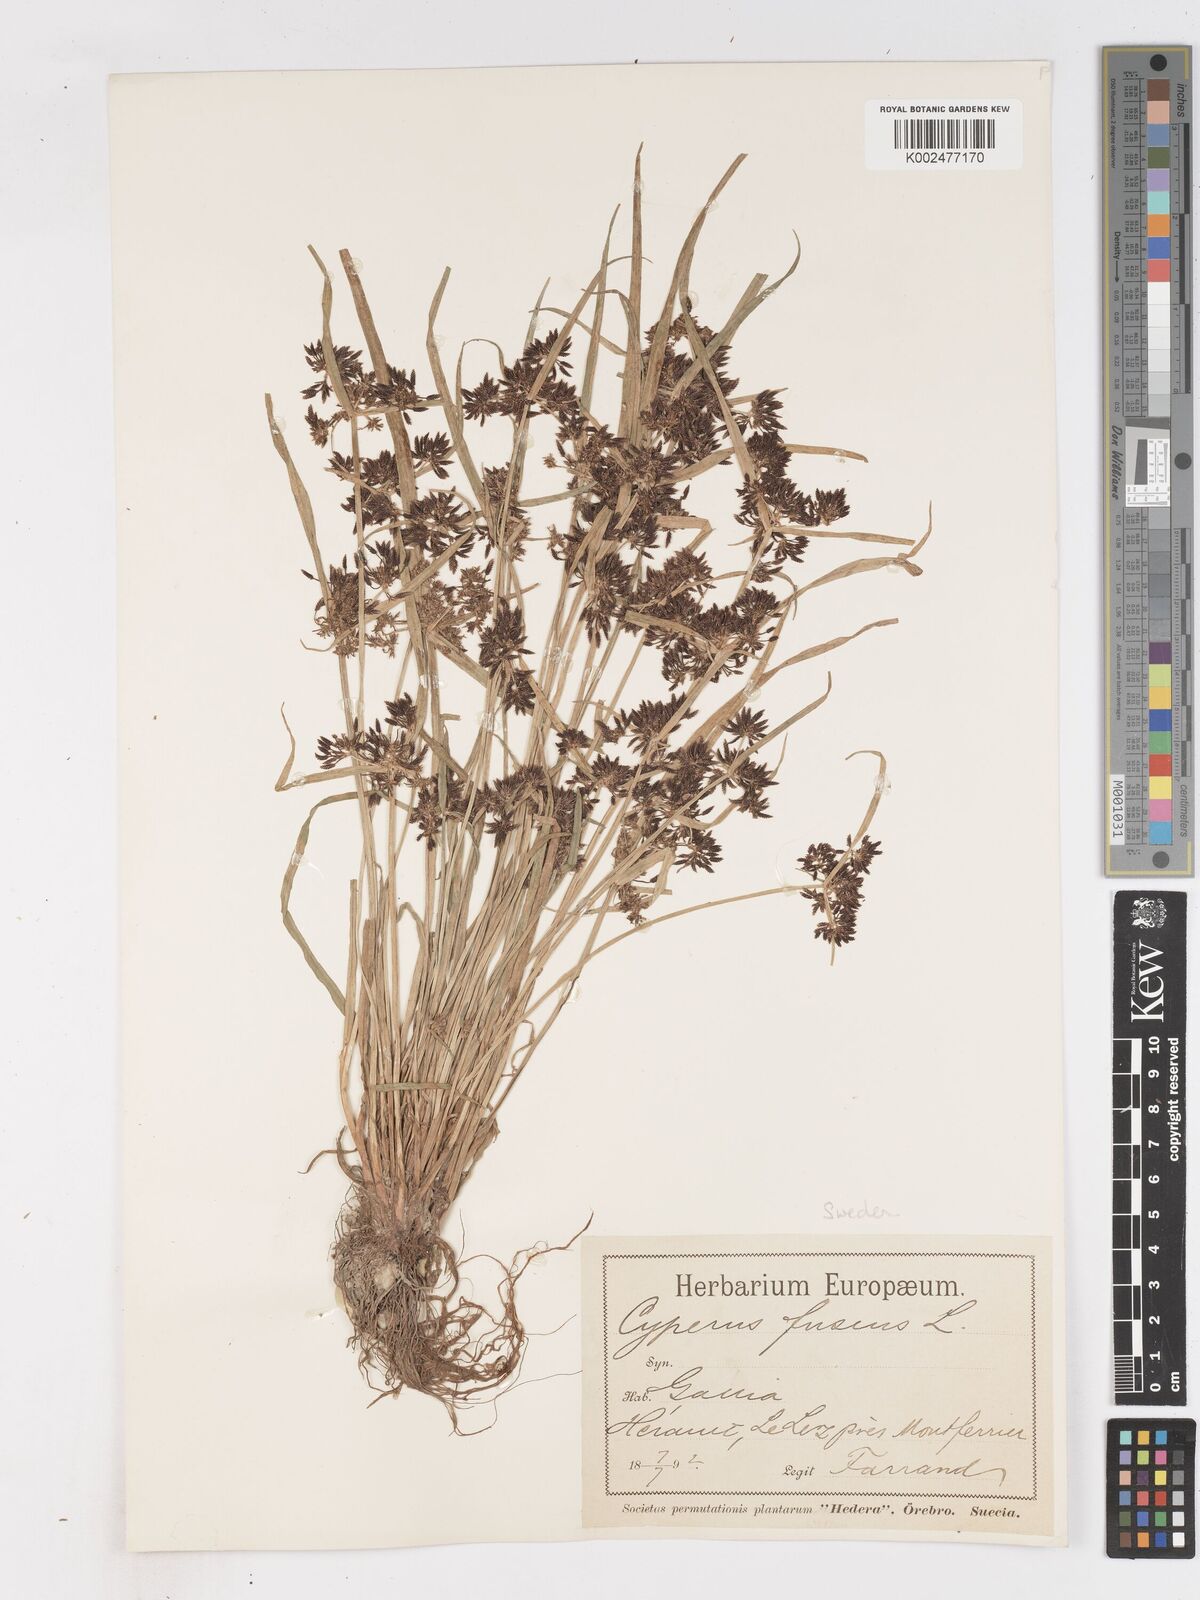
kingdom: Plantae
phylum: Tracheophyta
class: Liliopsida
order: Poales
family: Cyperaceae
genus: Cyperus
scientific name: Cyperus fuscus
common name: Brown galingale
